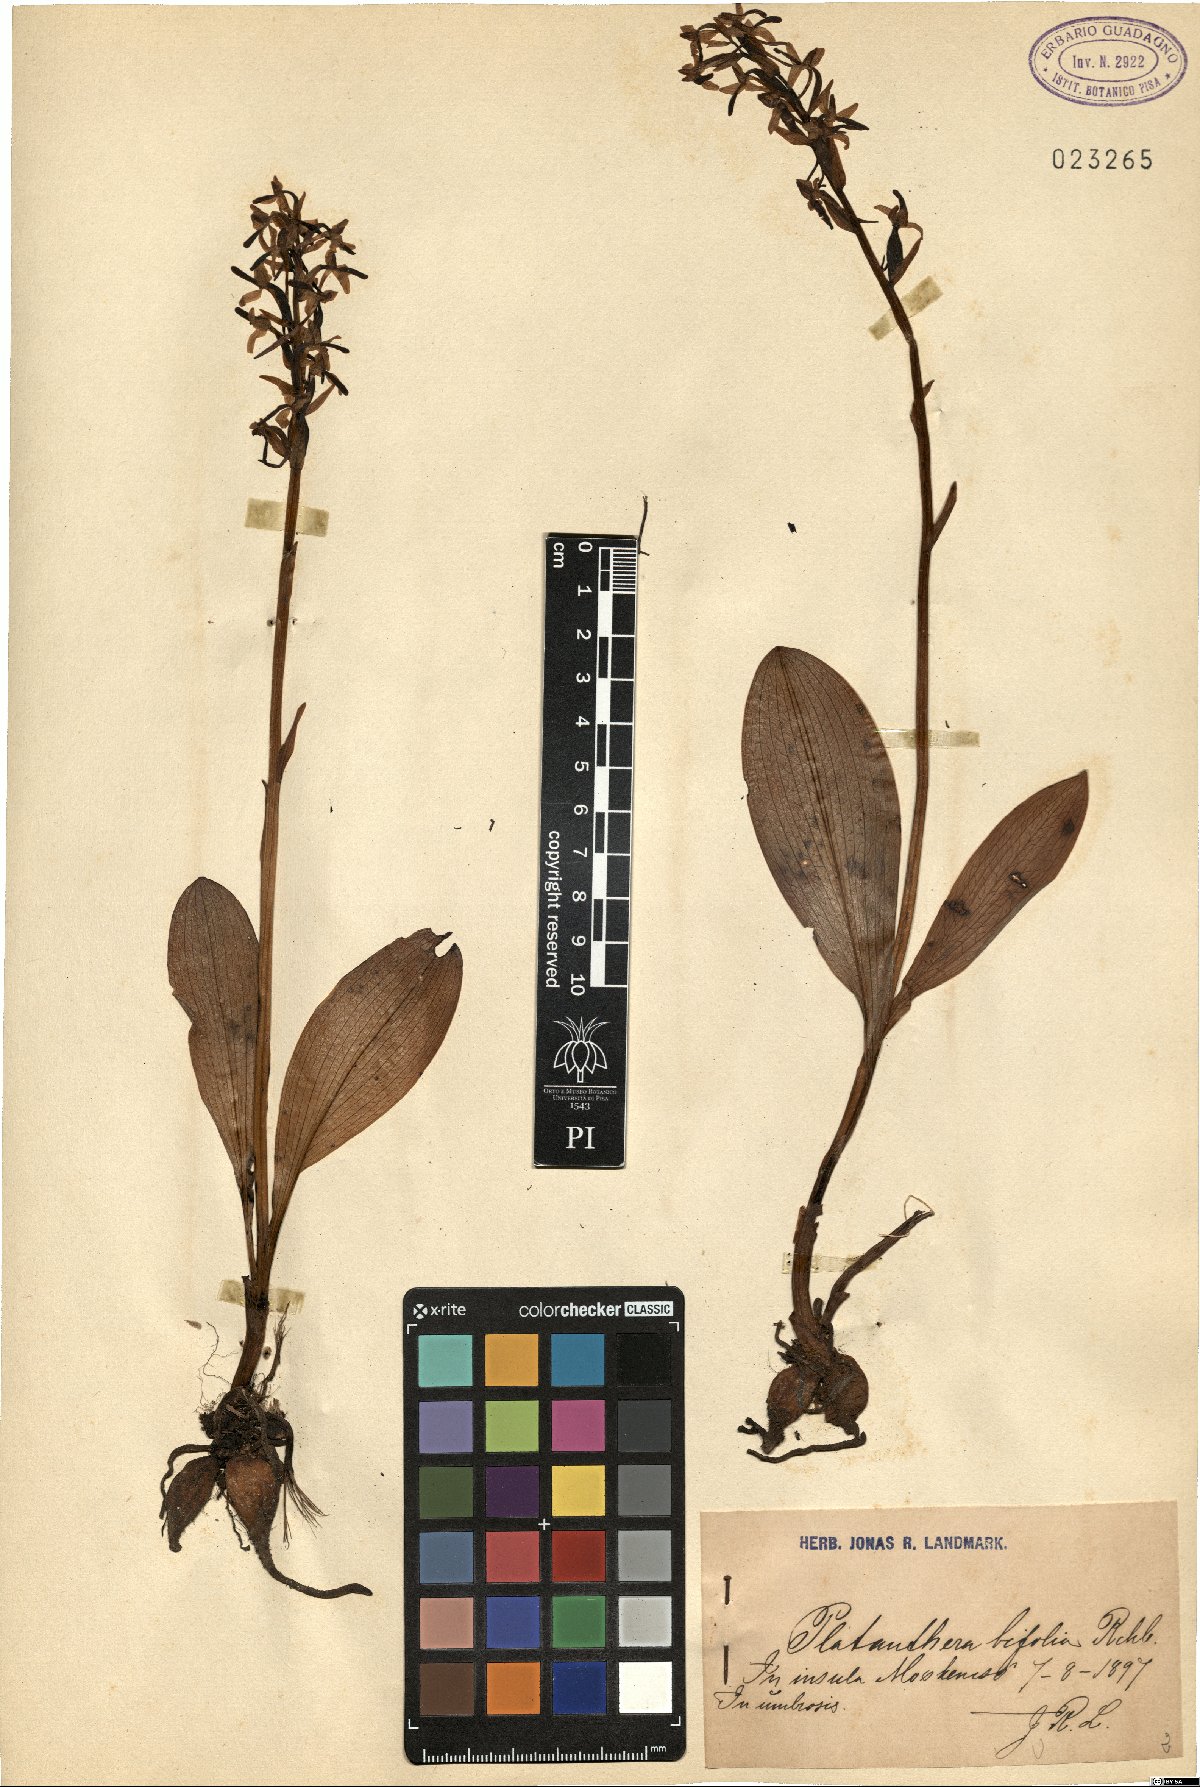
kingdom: Plantae
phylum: Tracheophyta
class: Liliopsida
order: Asparagales
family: Orchidaceae
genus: Platanthera
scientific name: Platanthera bifolia
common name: Lesser butterfly-orchid
